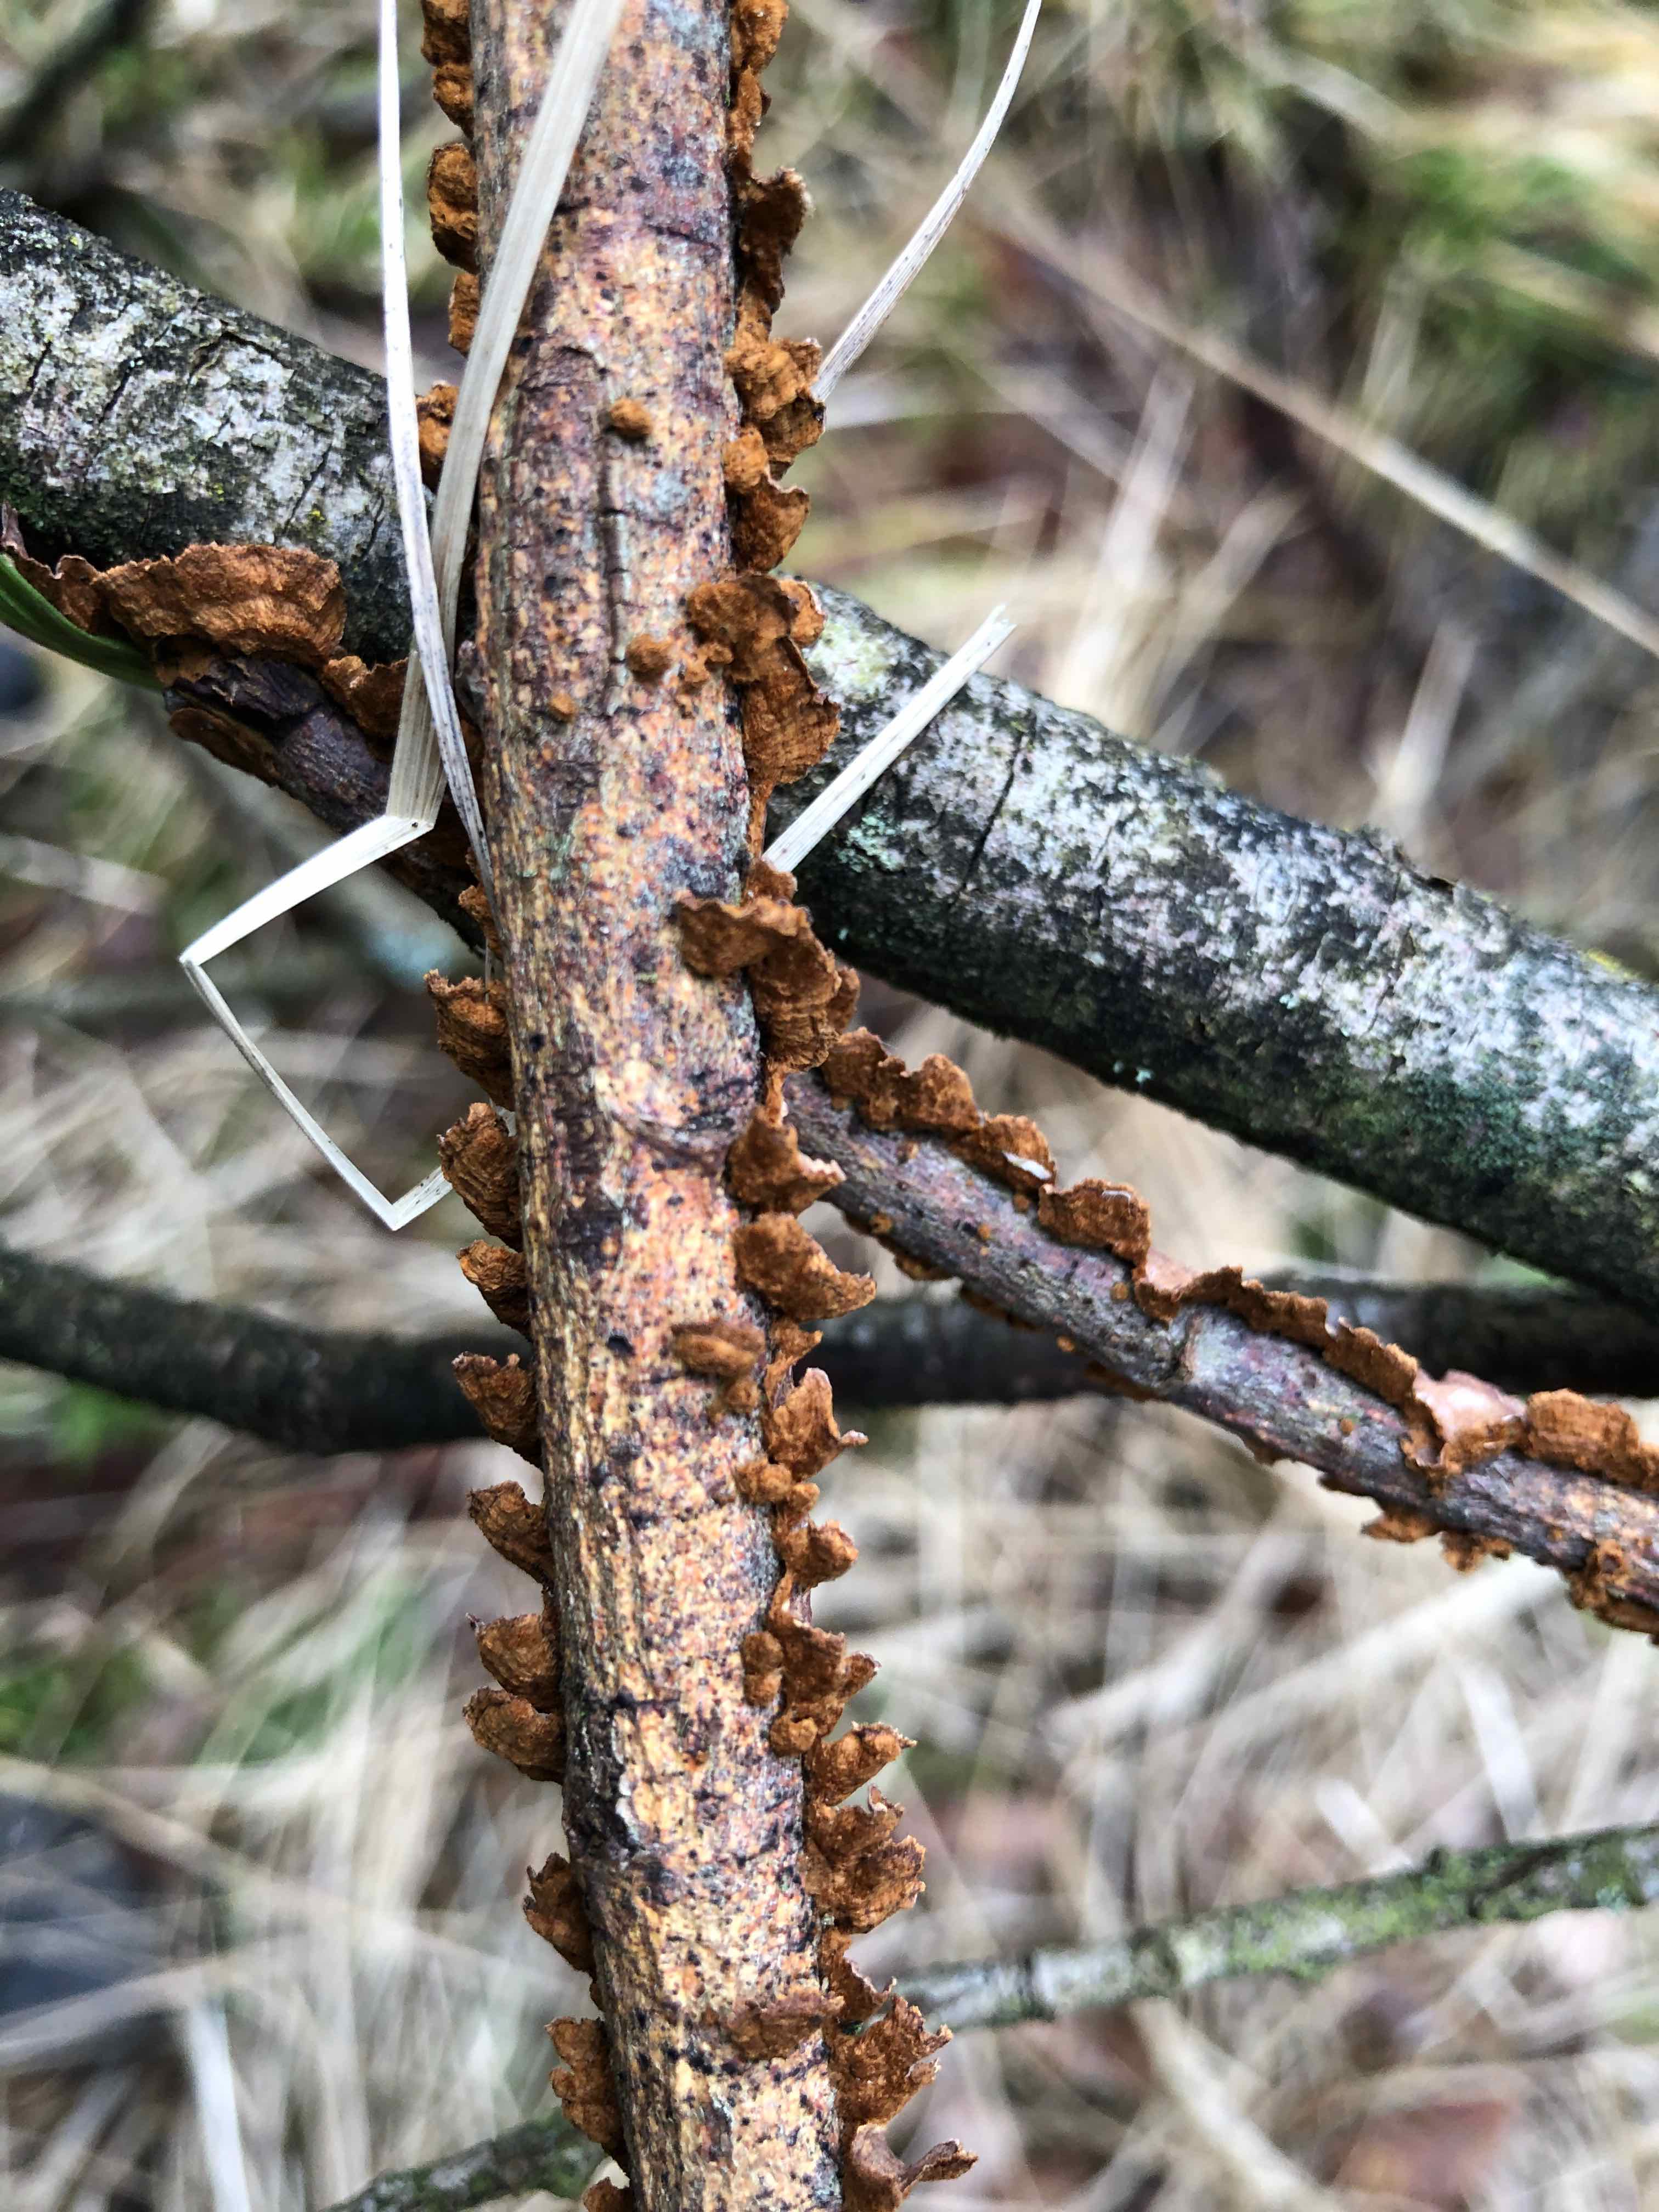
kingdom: Fungi
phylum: Basidiomycota
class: Agaricomycetes
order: Hymenochaetales
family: Hymenochaetaceae
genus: Hydnoporia
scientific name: Hydnoporia tabacina
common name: tobaksbrun ruslædersvamp
